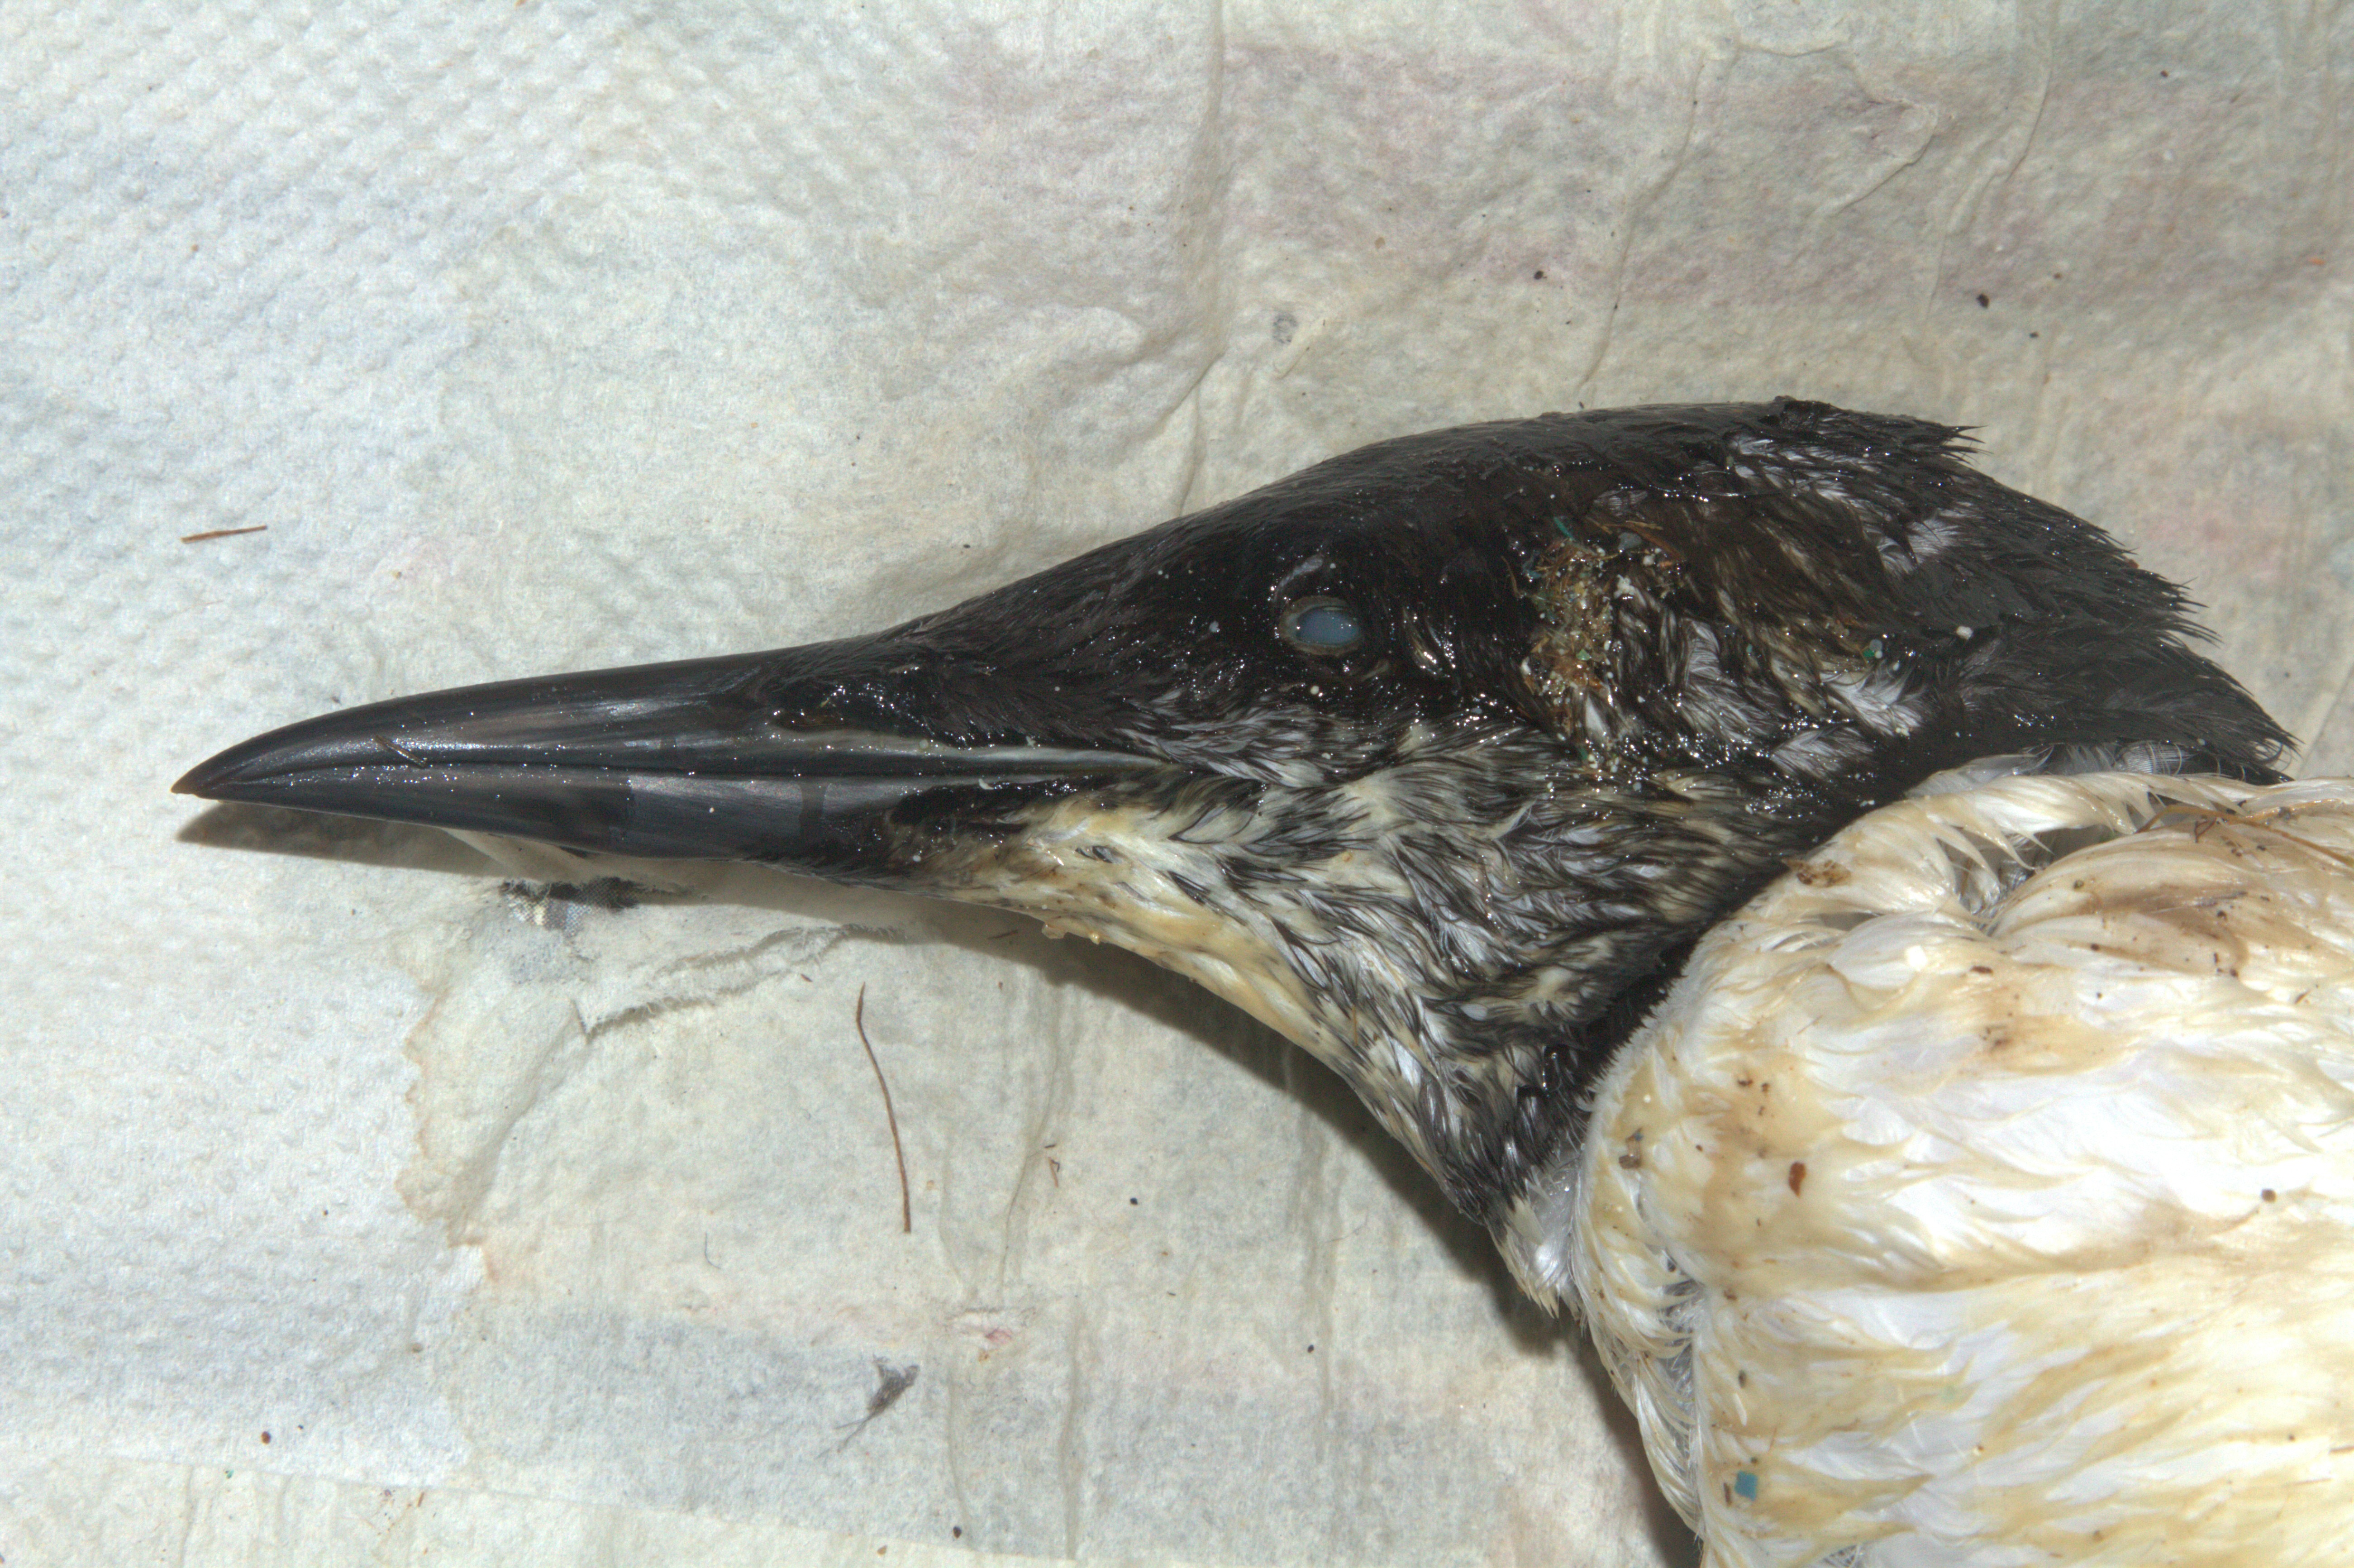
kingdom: Animalia
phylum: Chordata
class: Aves
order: Charadriiformes
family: Alcidae
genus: Uria
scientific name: Uria aalge
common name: Common murre
